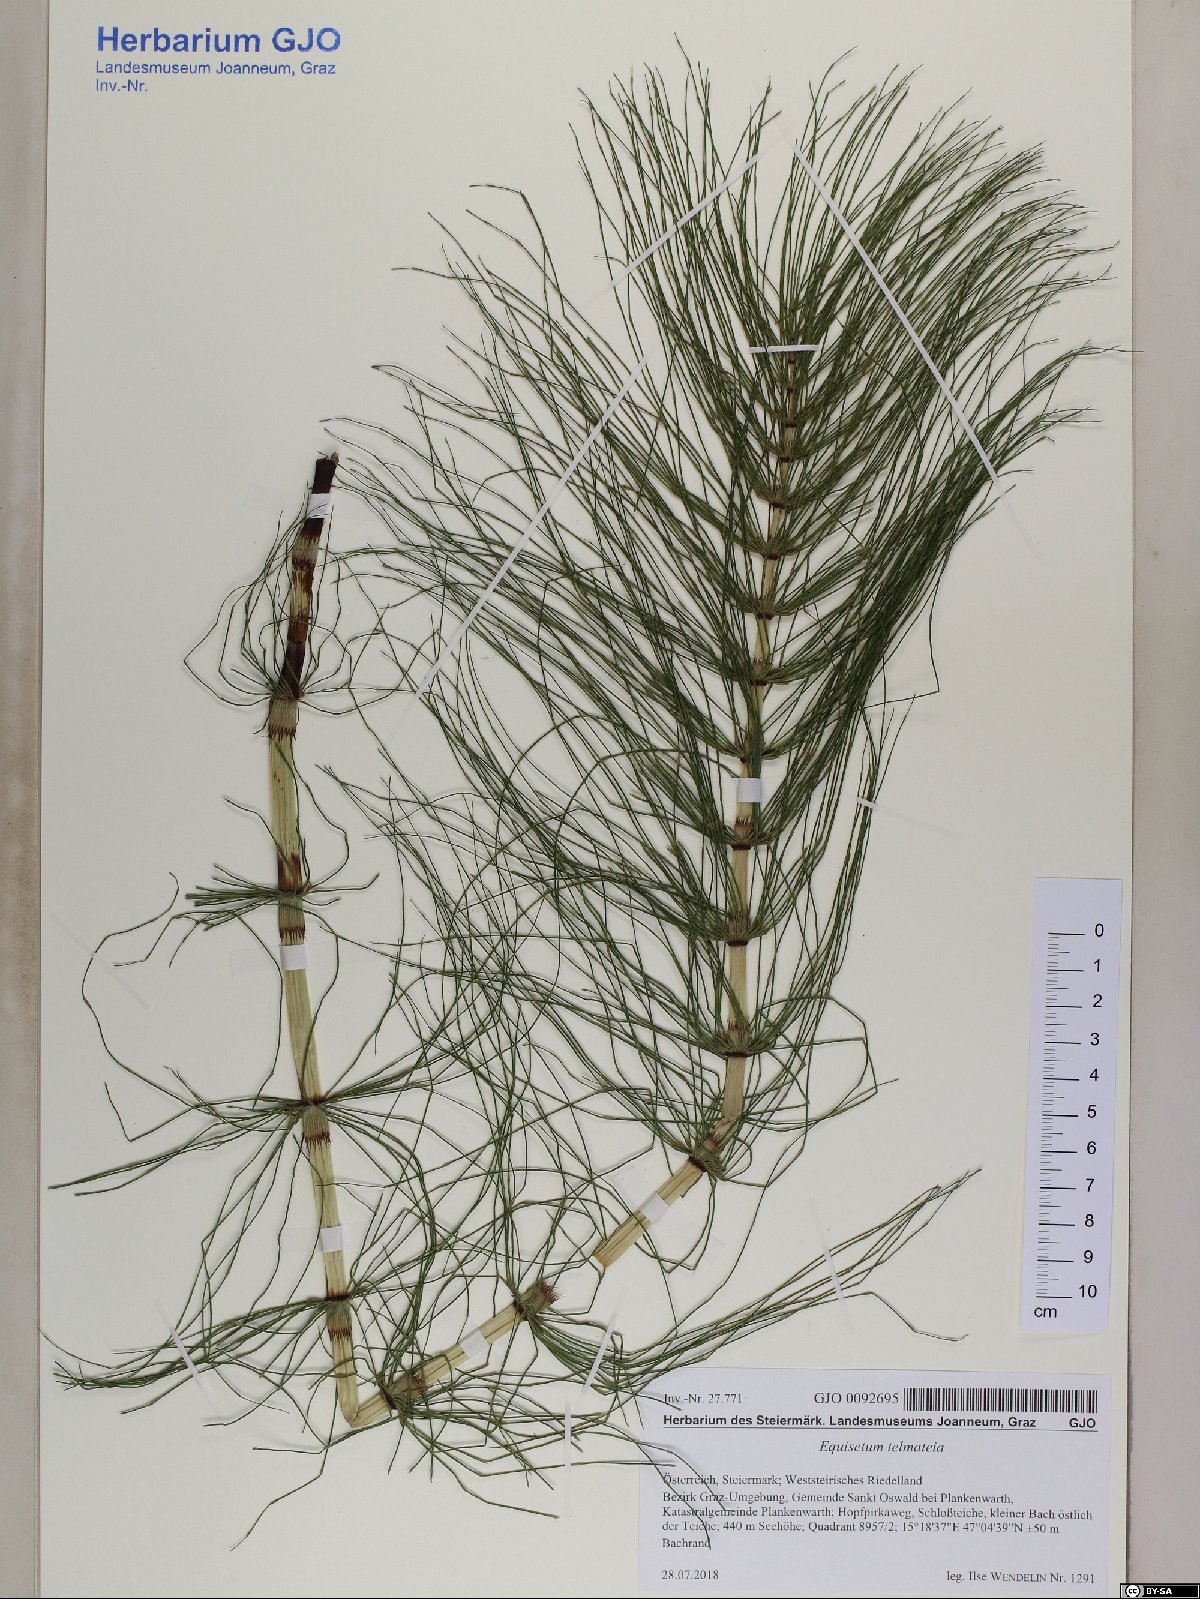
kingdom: Plantae
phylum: Tracheophyta
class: Polypodiopsida
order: Equisetales
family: Equisetaceae
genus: Equisetum
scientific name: Equisetum telmateia
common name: Great horsetail
